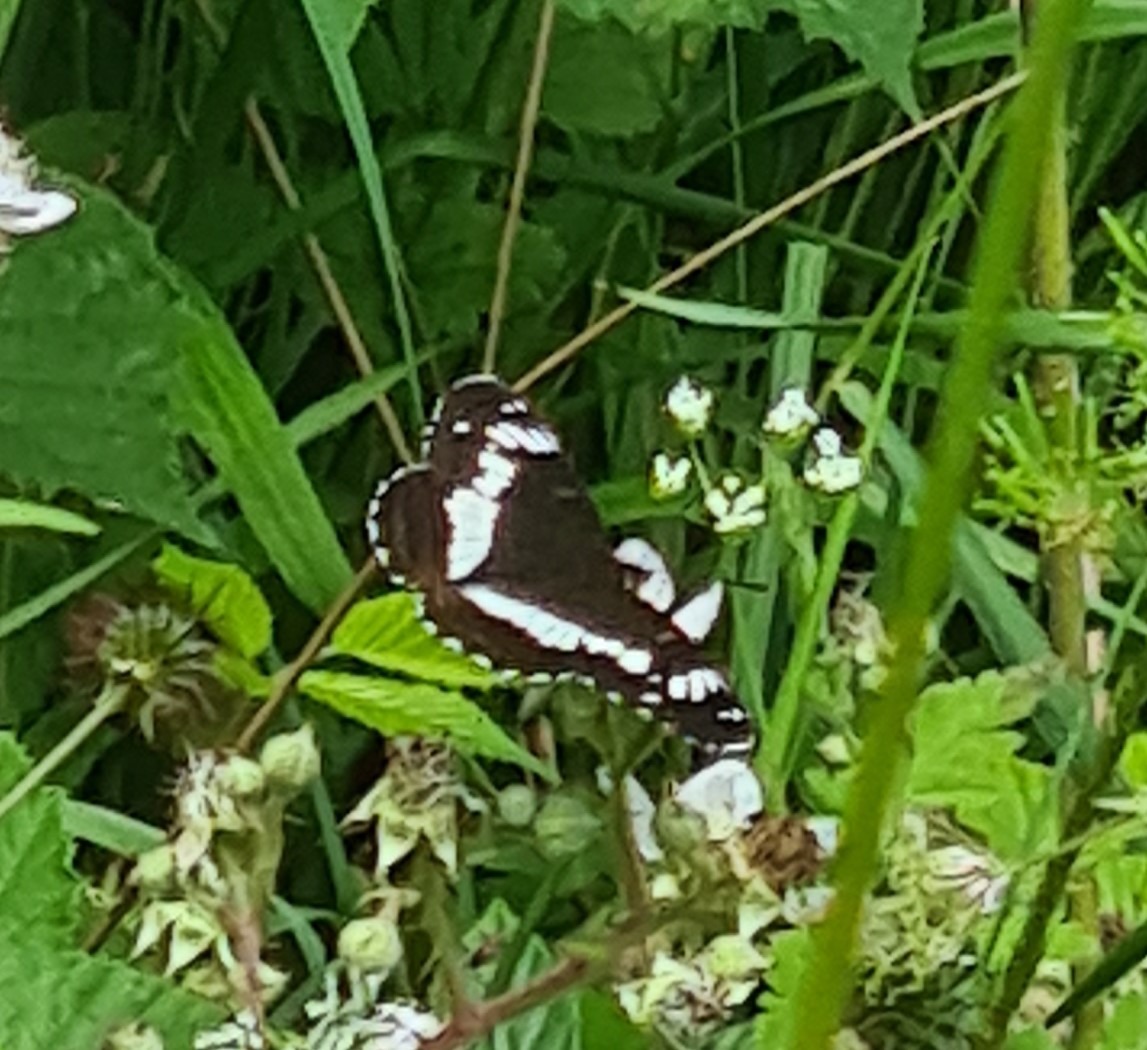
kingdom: Animalia
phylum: Arthropoda
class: Insecta
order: Lepidoptera
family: Nymphalidae
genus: Ladoga
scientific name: Ladoga camilla
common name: Hvid admiral
